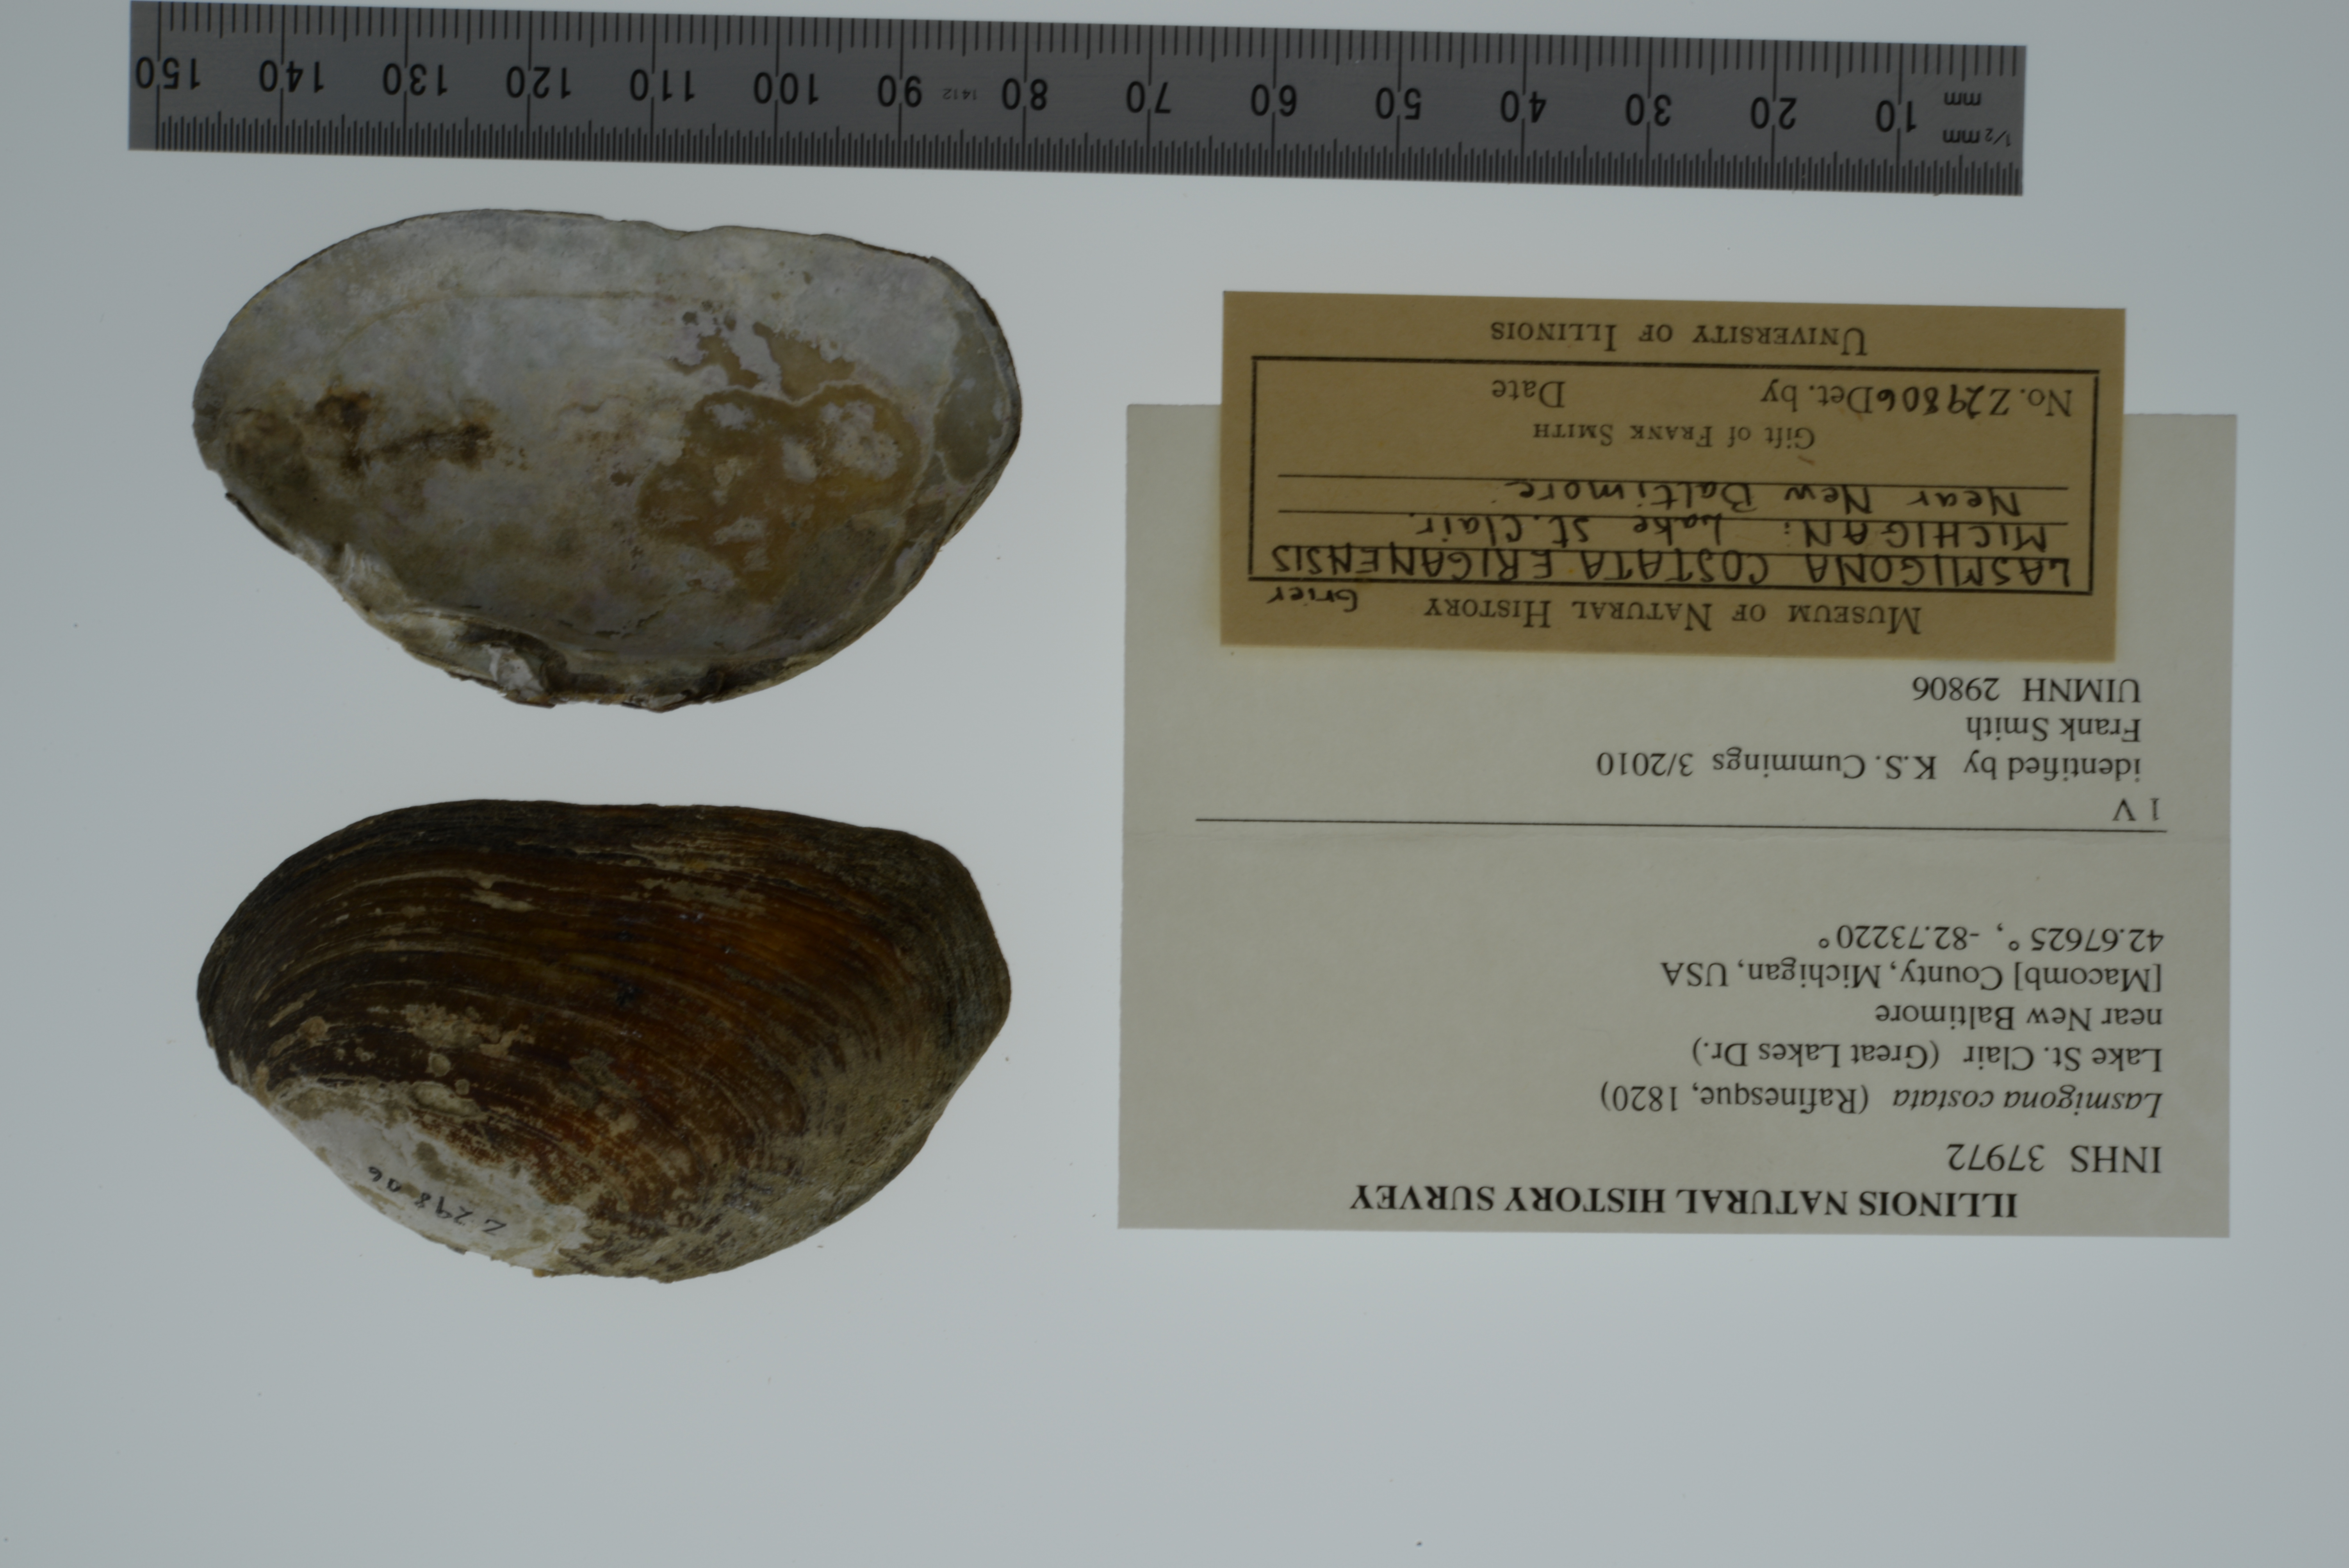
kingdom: Animalia
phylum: Mollusca
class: Bivalvia
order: Unionida
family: Unionidae
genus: Lasmigona
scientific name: Lasmigona costata
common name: Flutedshell
